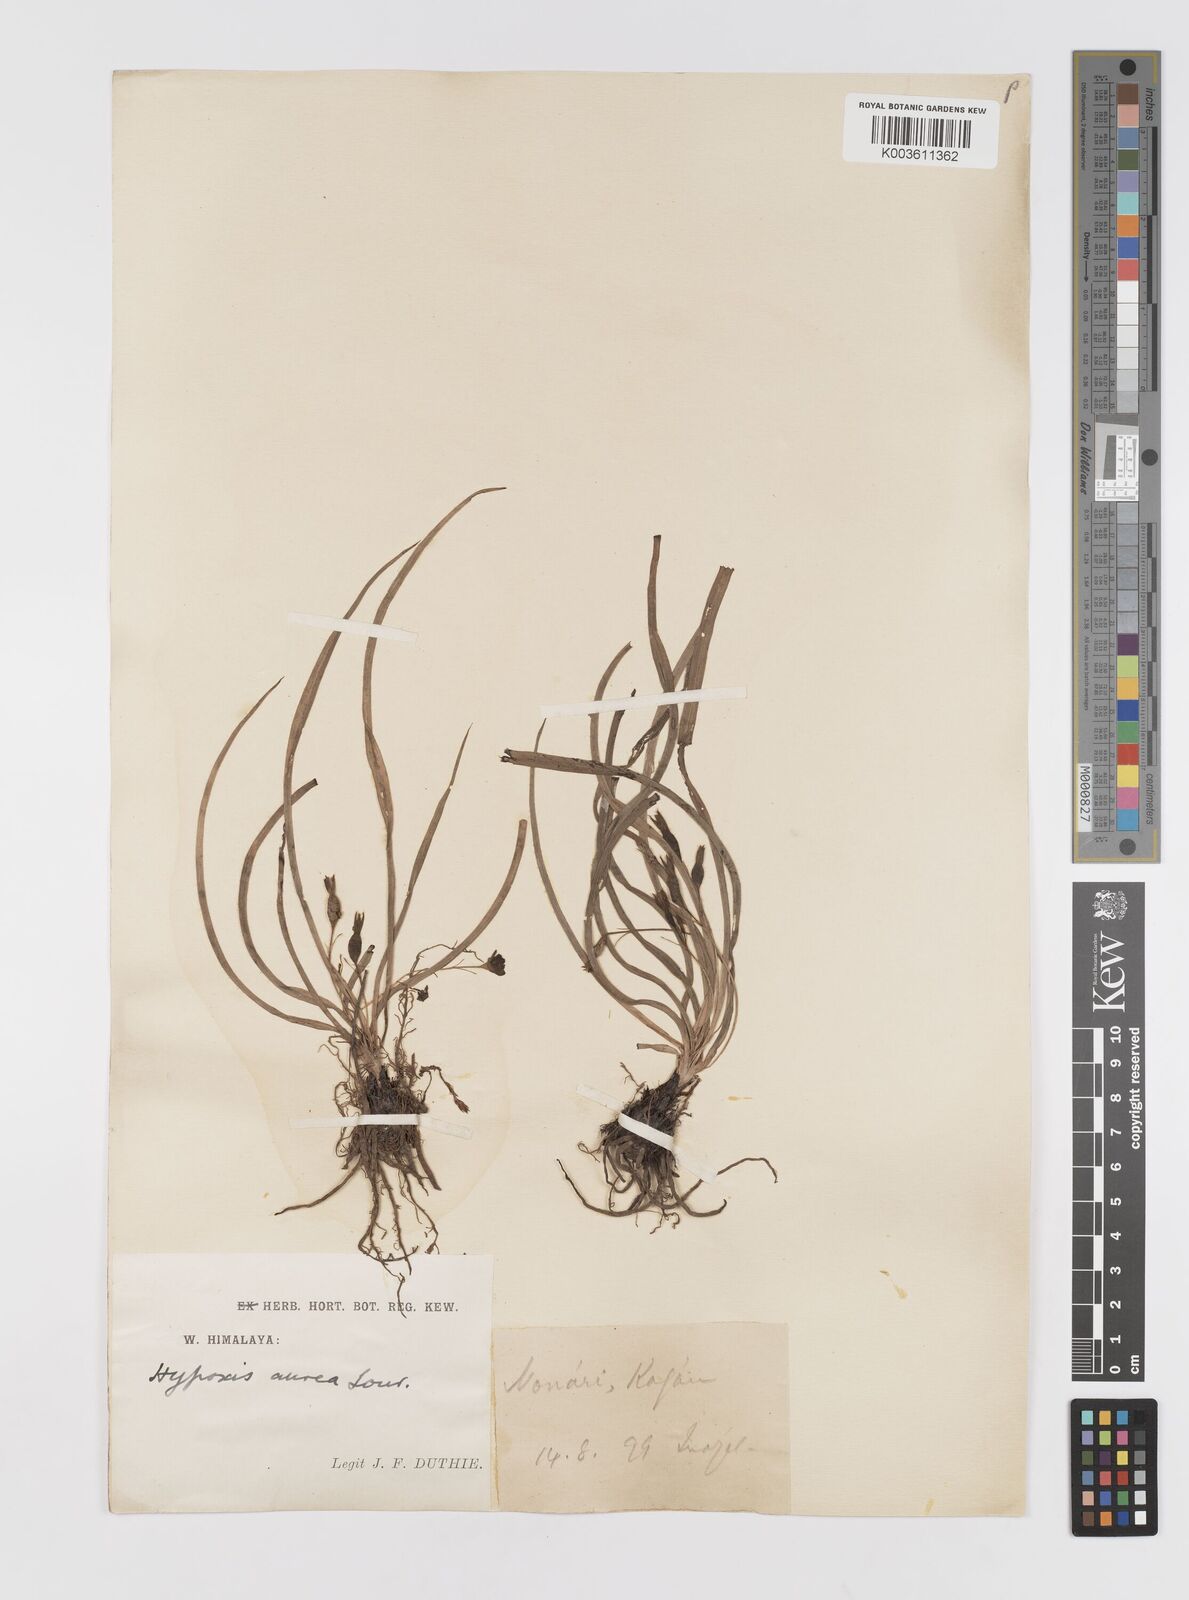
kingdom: Plantae
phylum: Tracheophyta
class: Liliopsida
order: Asparagales
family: Hypoxidaceae
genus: Hypoxis
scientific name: Hypoxis aurea
